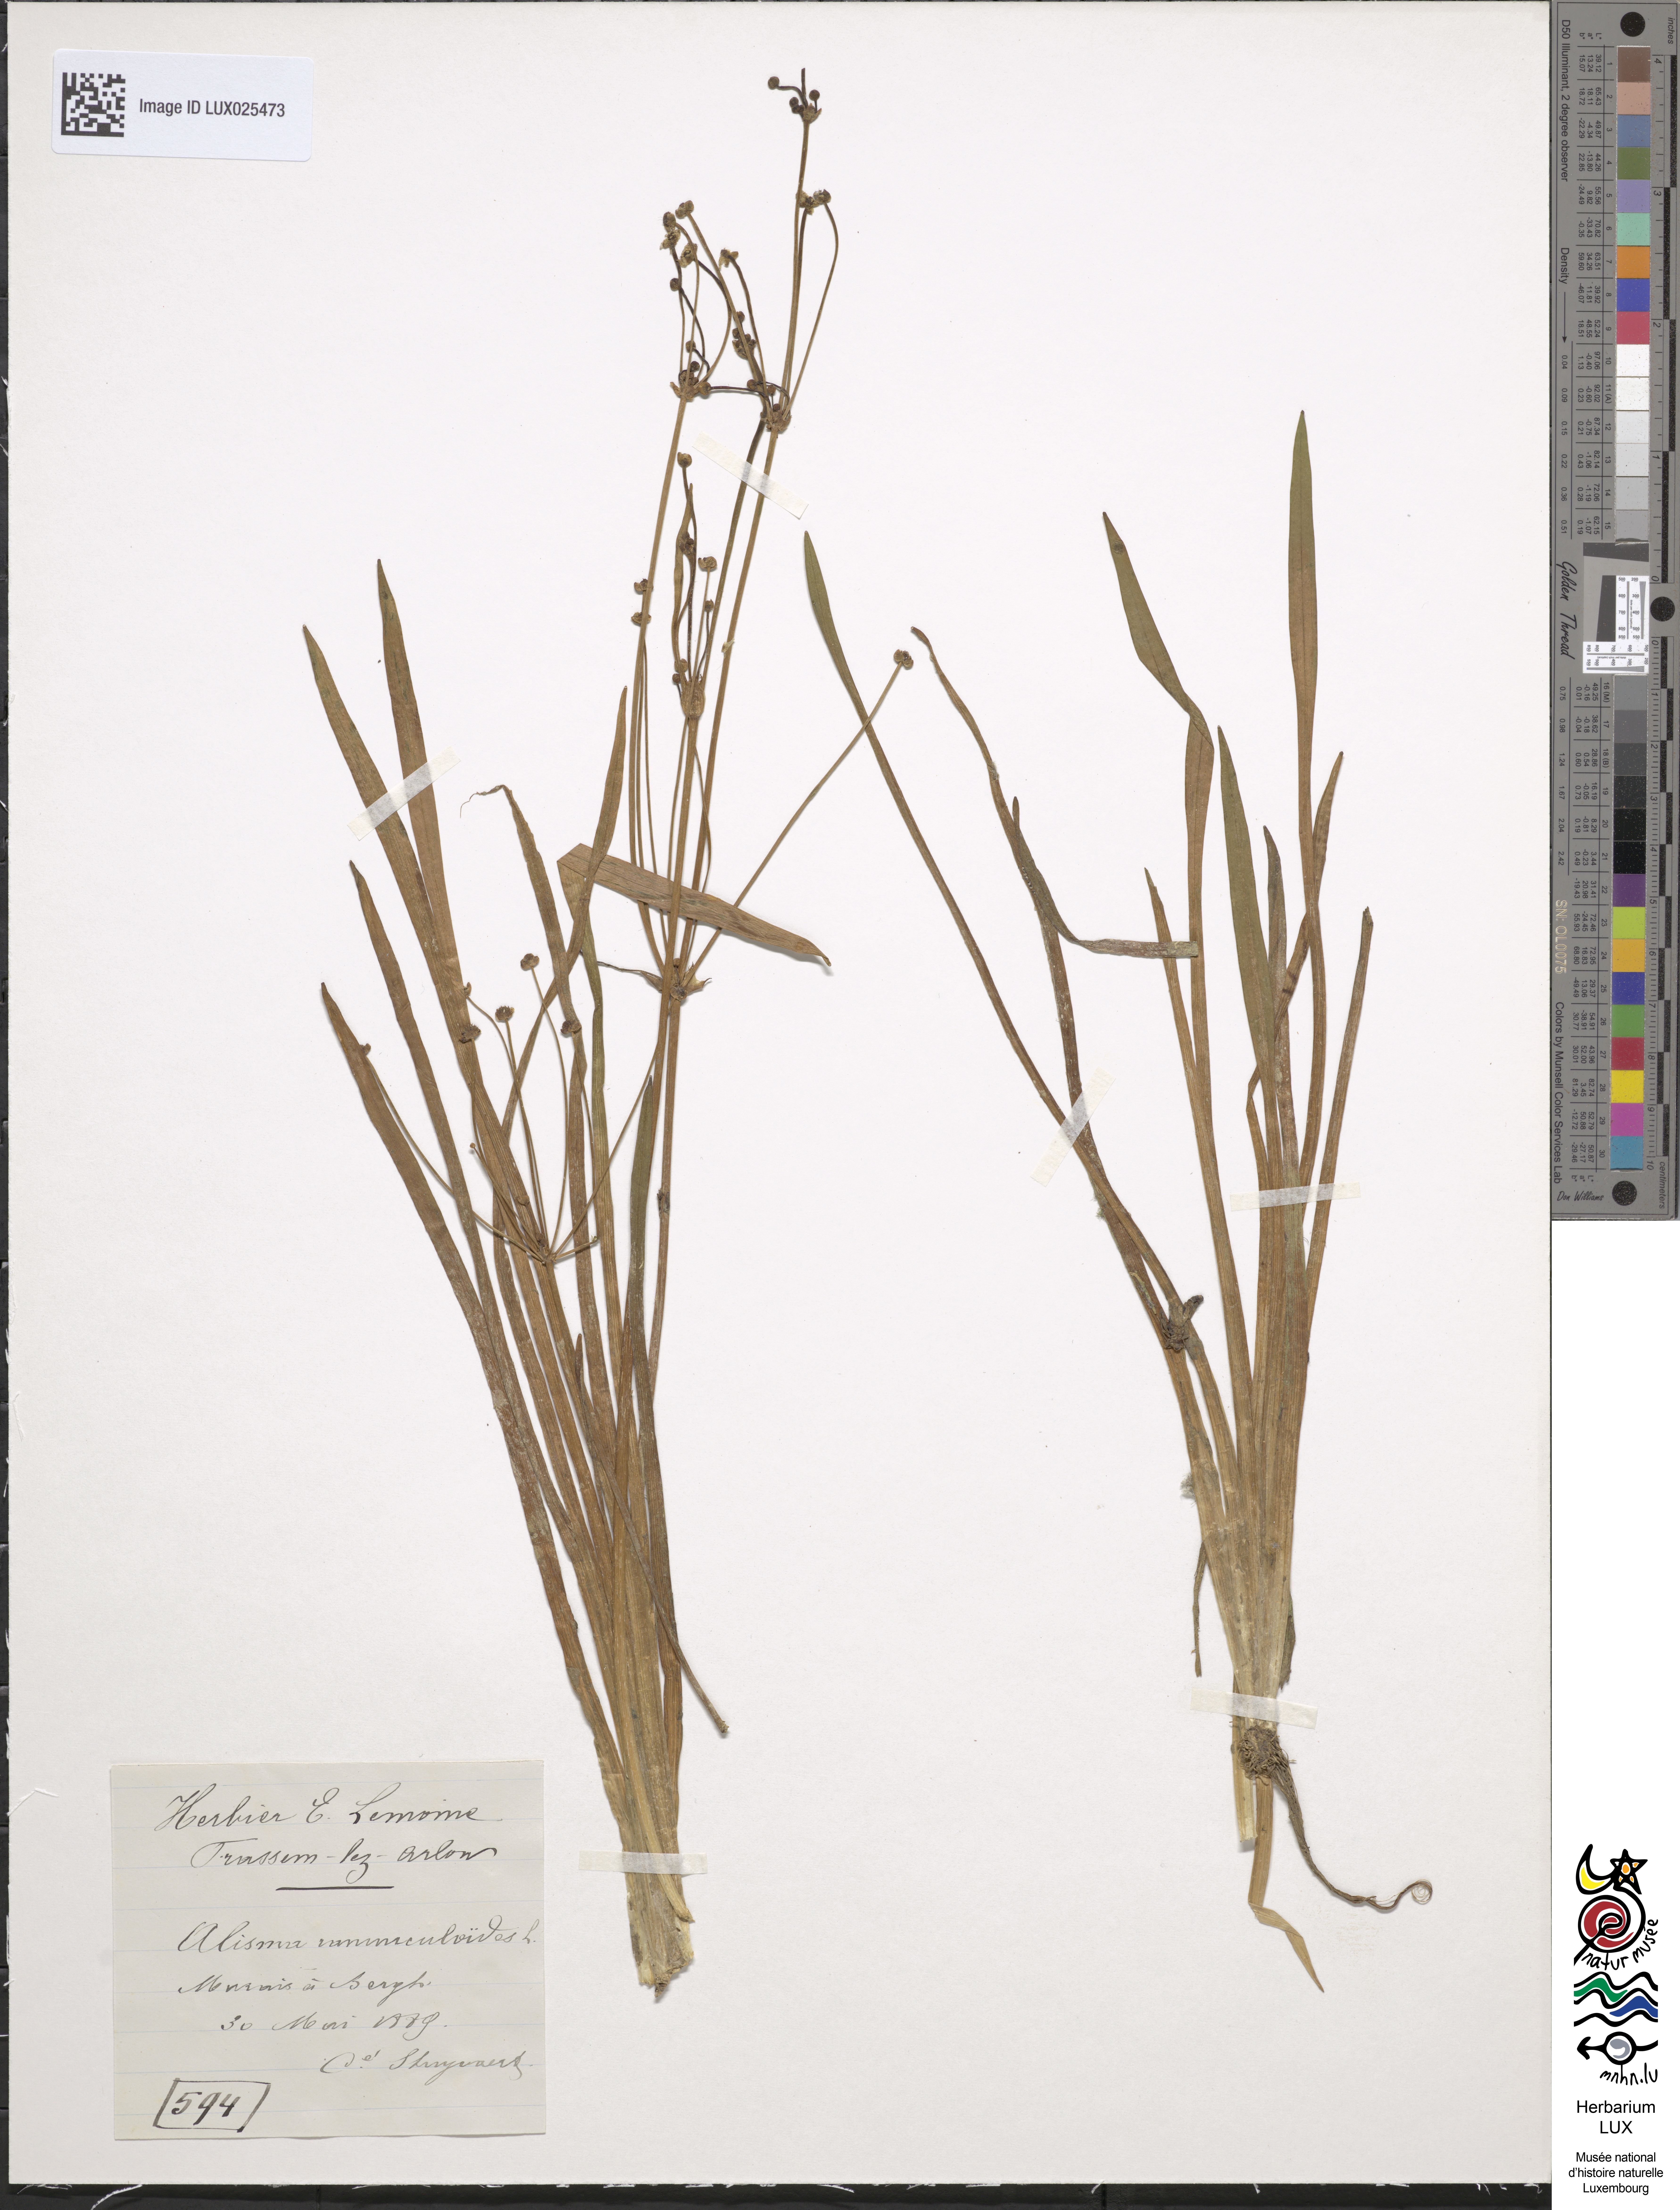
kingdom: Plantae
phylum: Tracheophyta
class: Liliopsida
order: Alismatales
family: Alismataceae
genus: Baldellia
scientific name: Baldellia ranunculoides
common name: Lesser water-plantain
